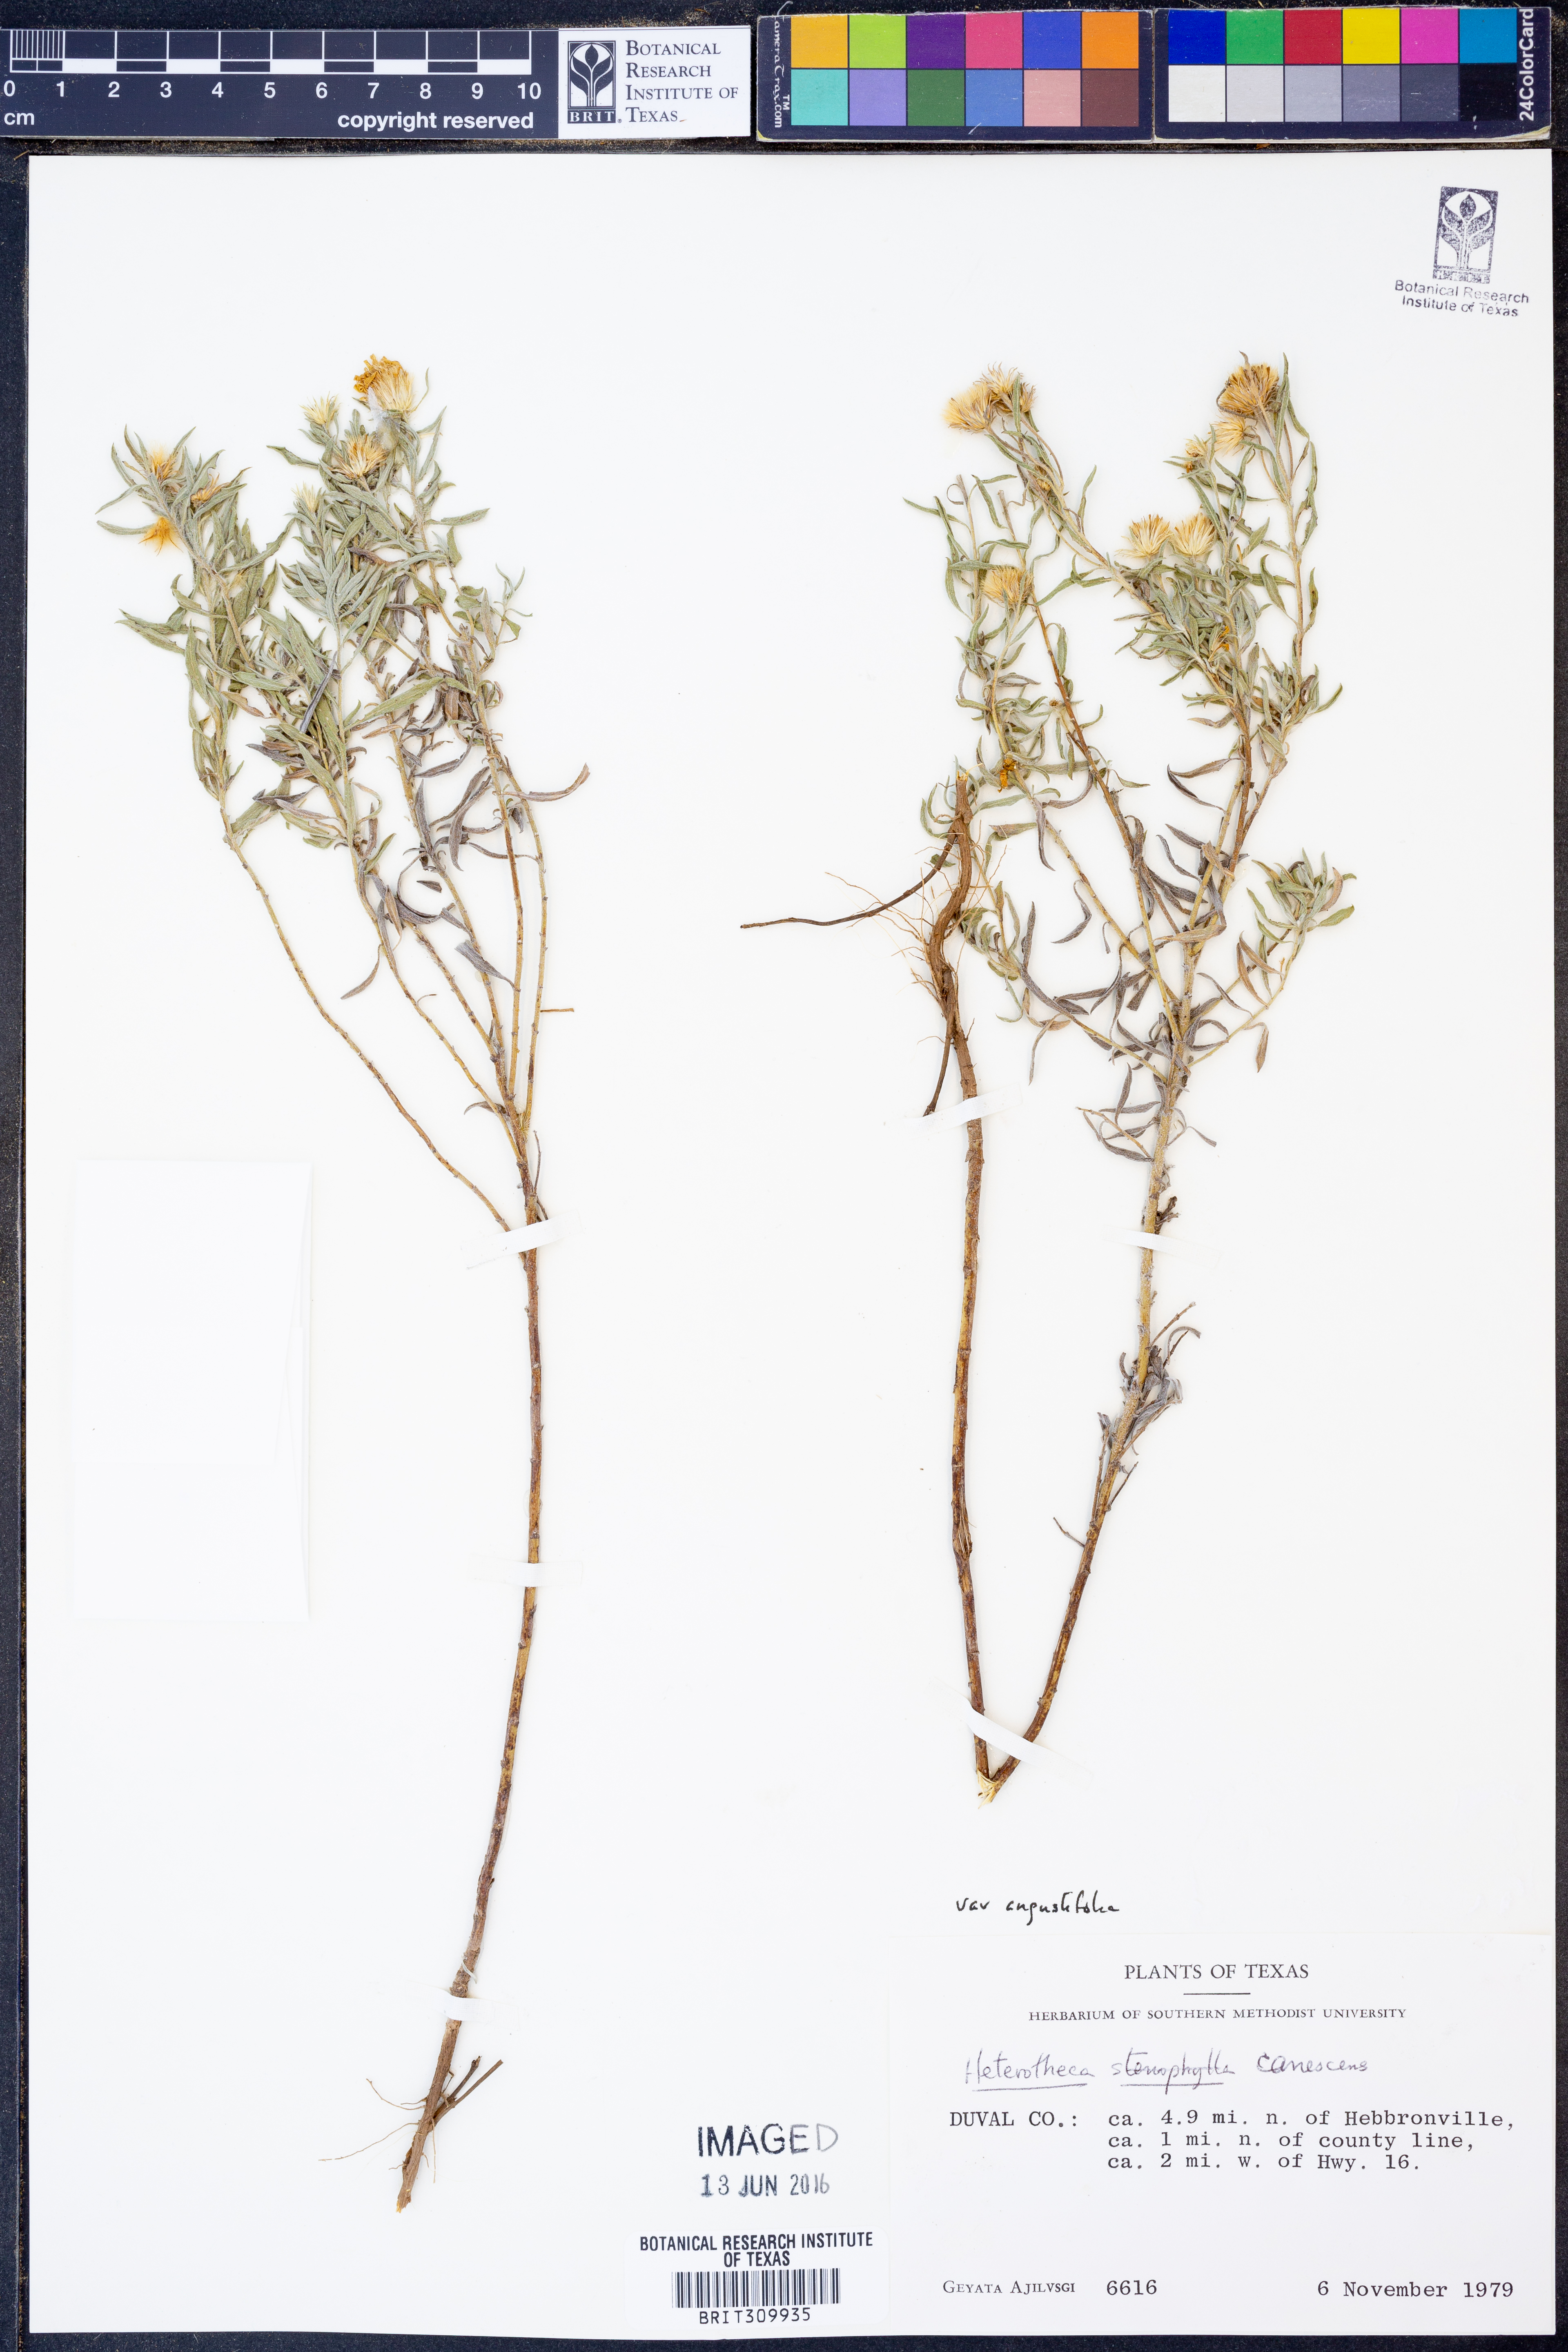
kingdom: Plantae
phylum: Tracheophyta
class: Magnoliopsida
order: Asterales
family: Asteraceae
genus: Heterotheca
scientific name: Heterotheca angustifolia
